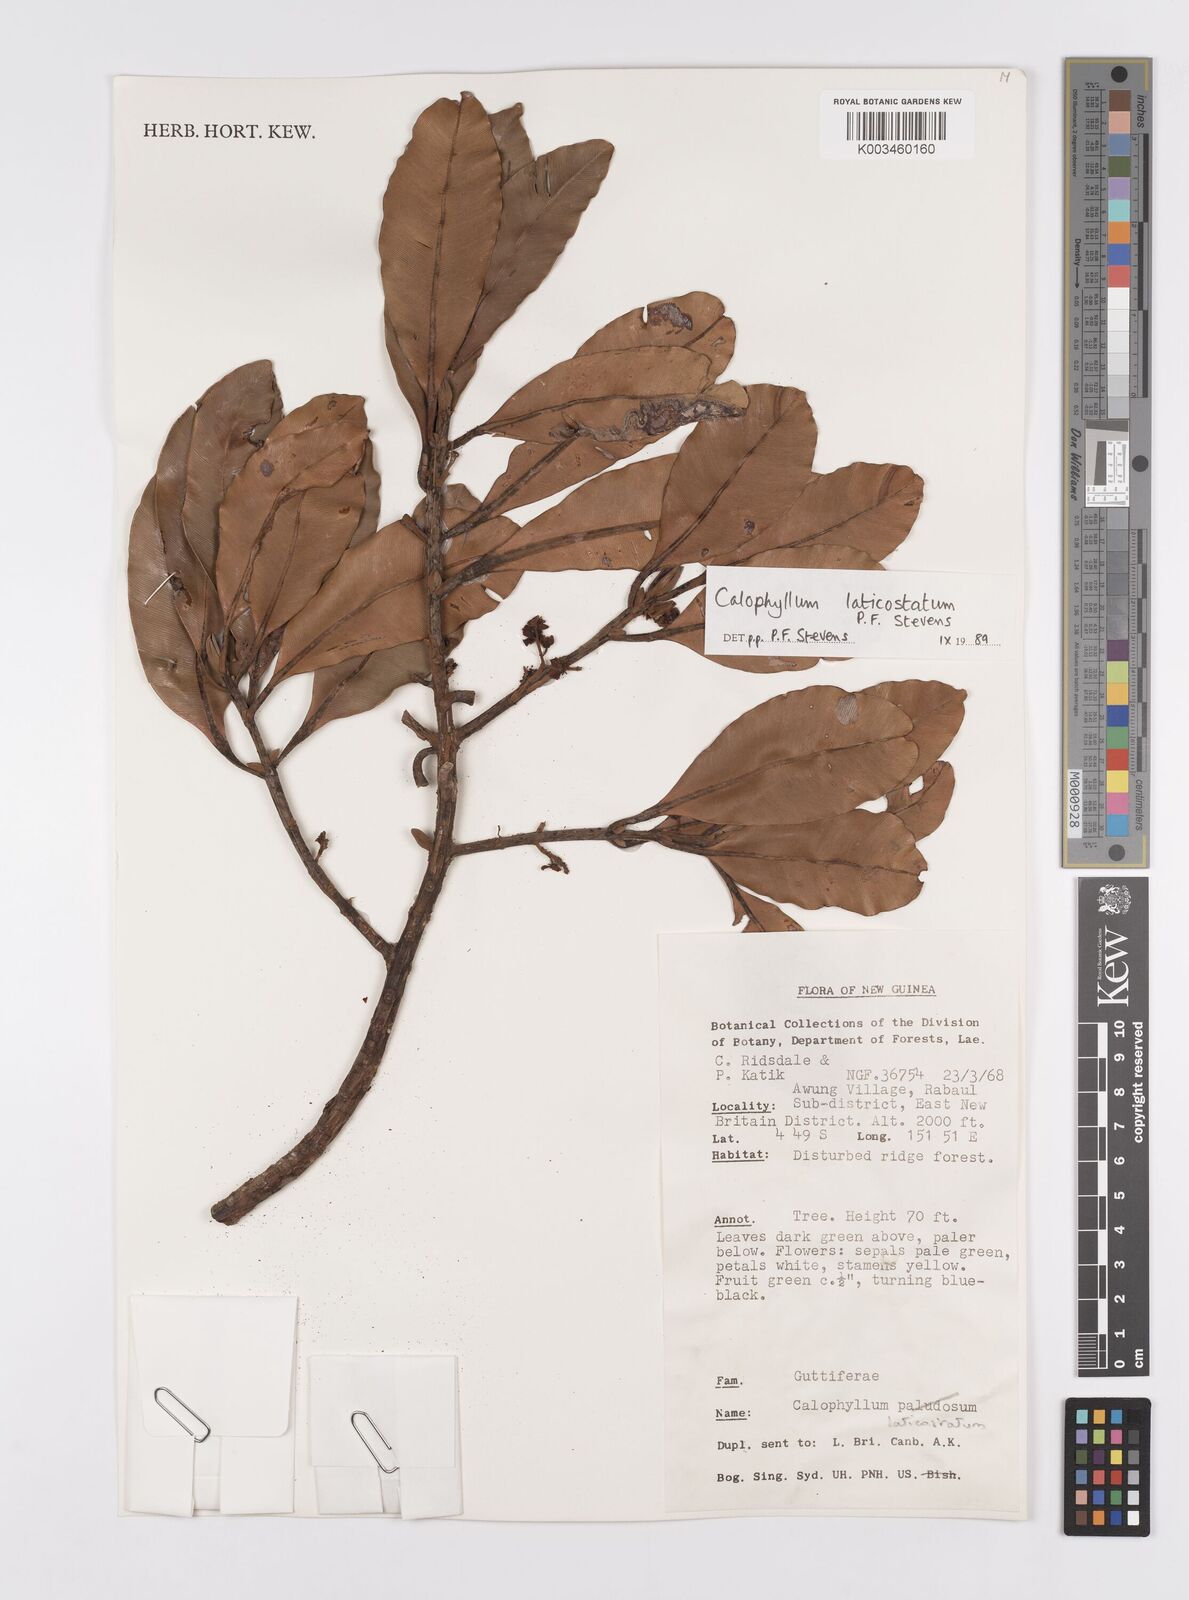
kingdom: Plantae
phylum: Tracheophyta
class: Magnoliopsida
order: Malpighiales
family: Calophyllaceae
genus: Calophyllum
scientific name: Calophyllum laticostatum
